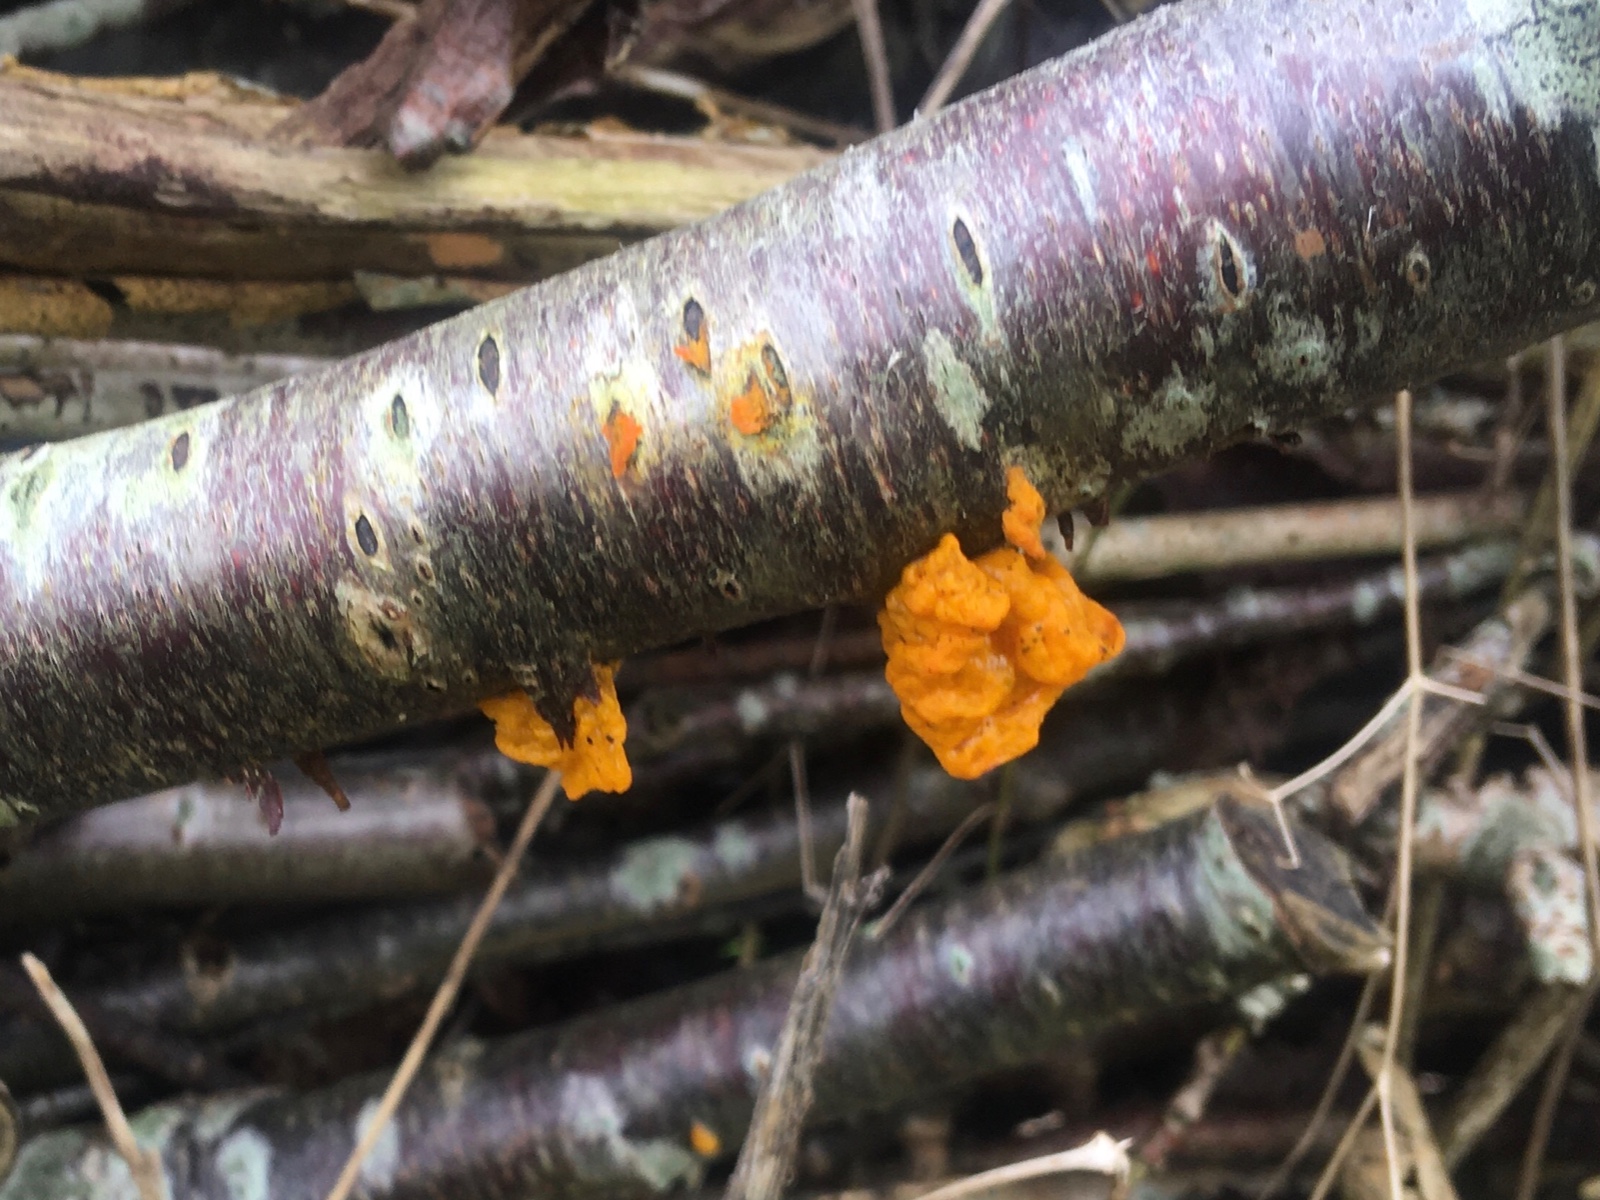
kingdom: Fungi
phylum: Basidiomycota
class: Tremellomycetes
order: Tremellales
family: Tremellaceae
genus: Tremella
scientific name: Tremella mesenterica
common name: gul bævresvamp
